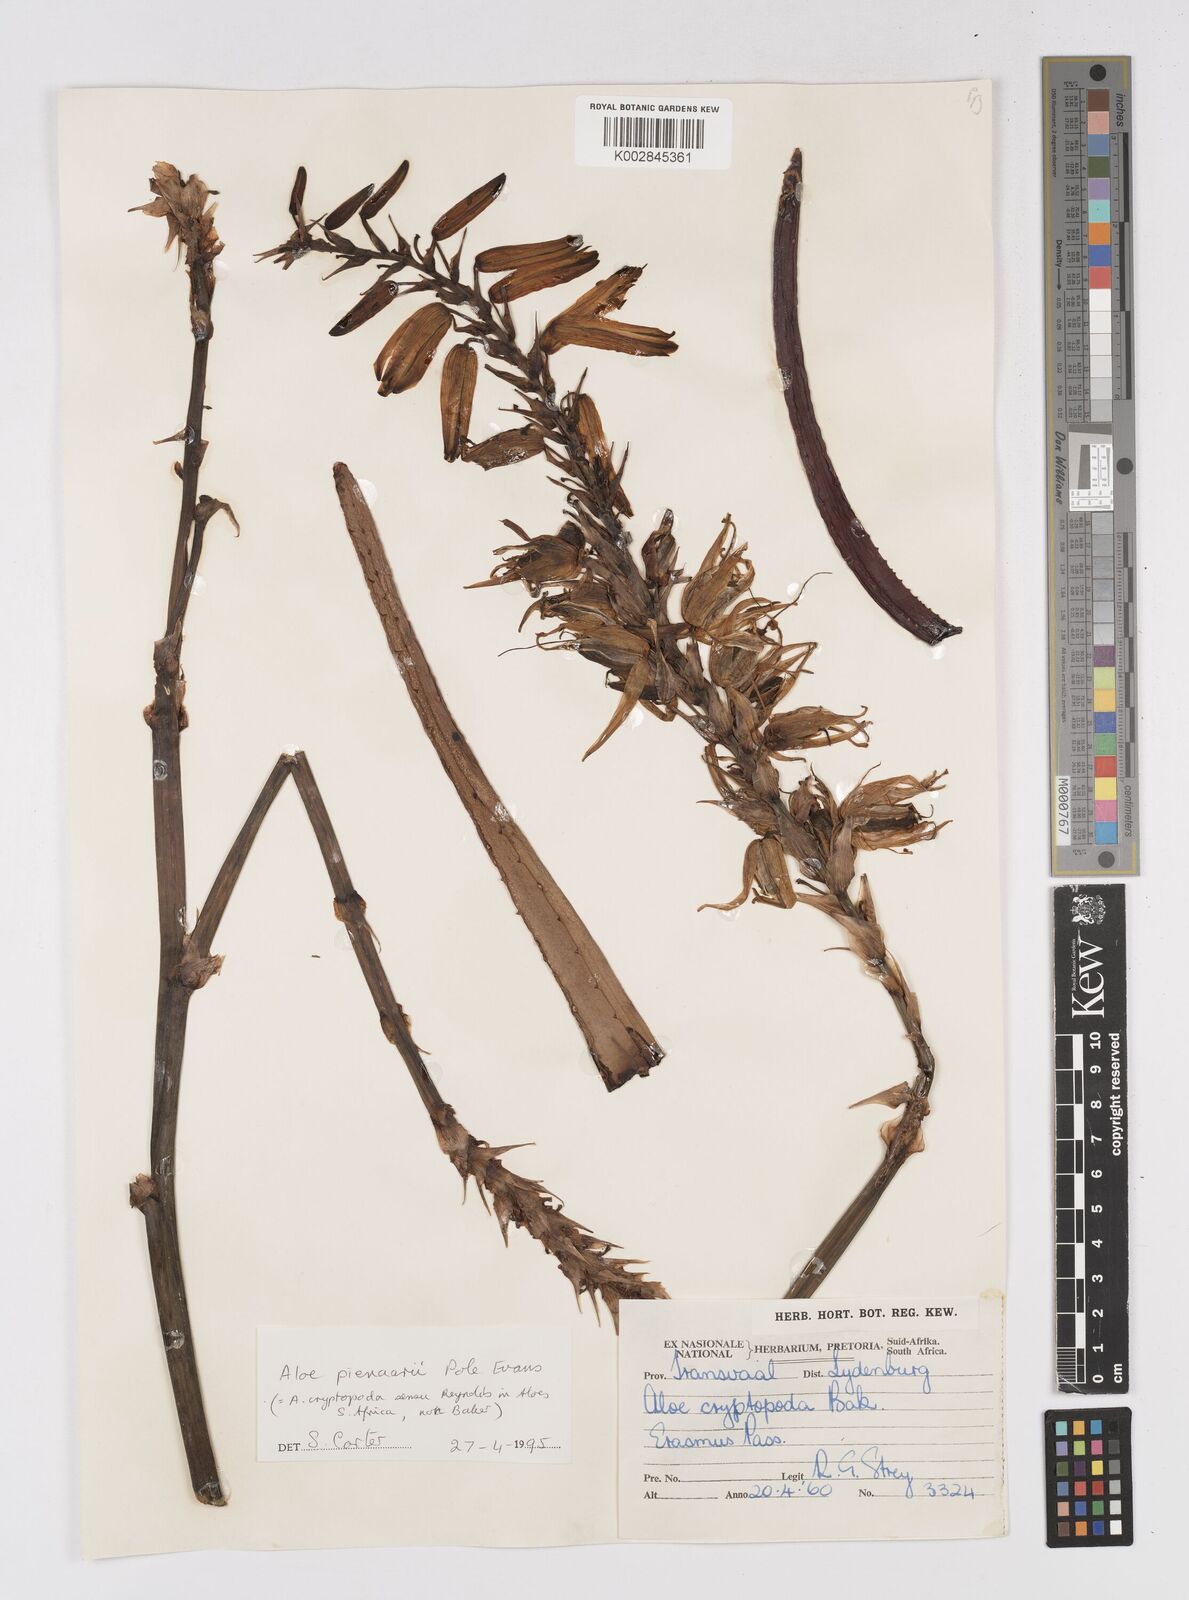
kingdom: Plantae
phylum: Tracheophyta
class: Liliopsida
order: Asparagales
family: Asphodelaceae
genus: Aloe
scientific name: Aloe pienaarii
